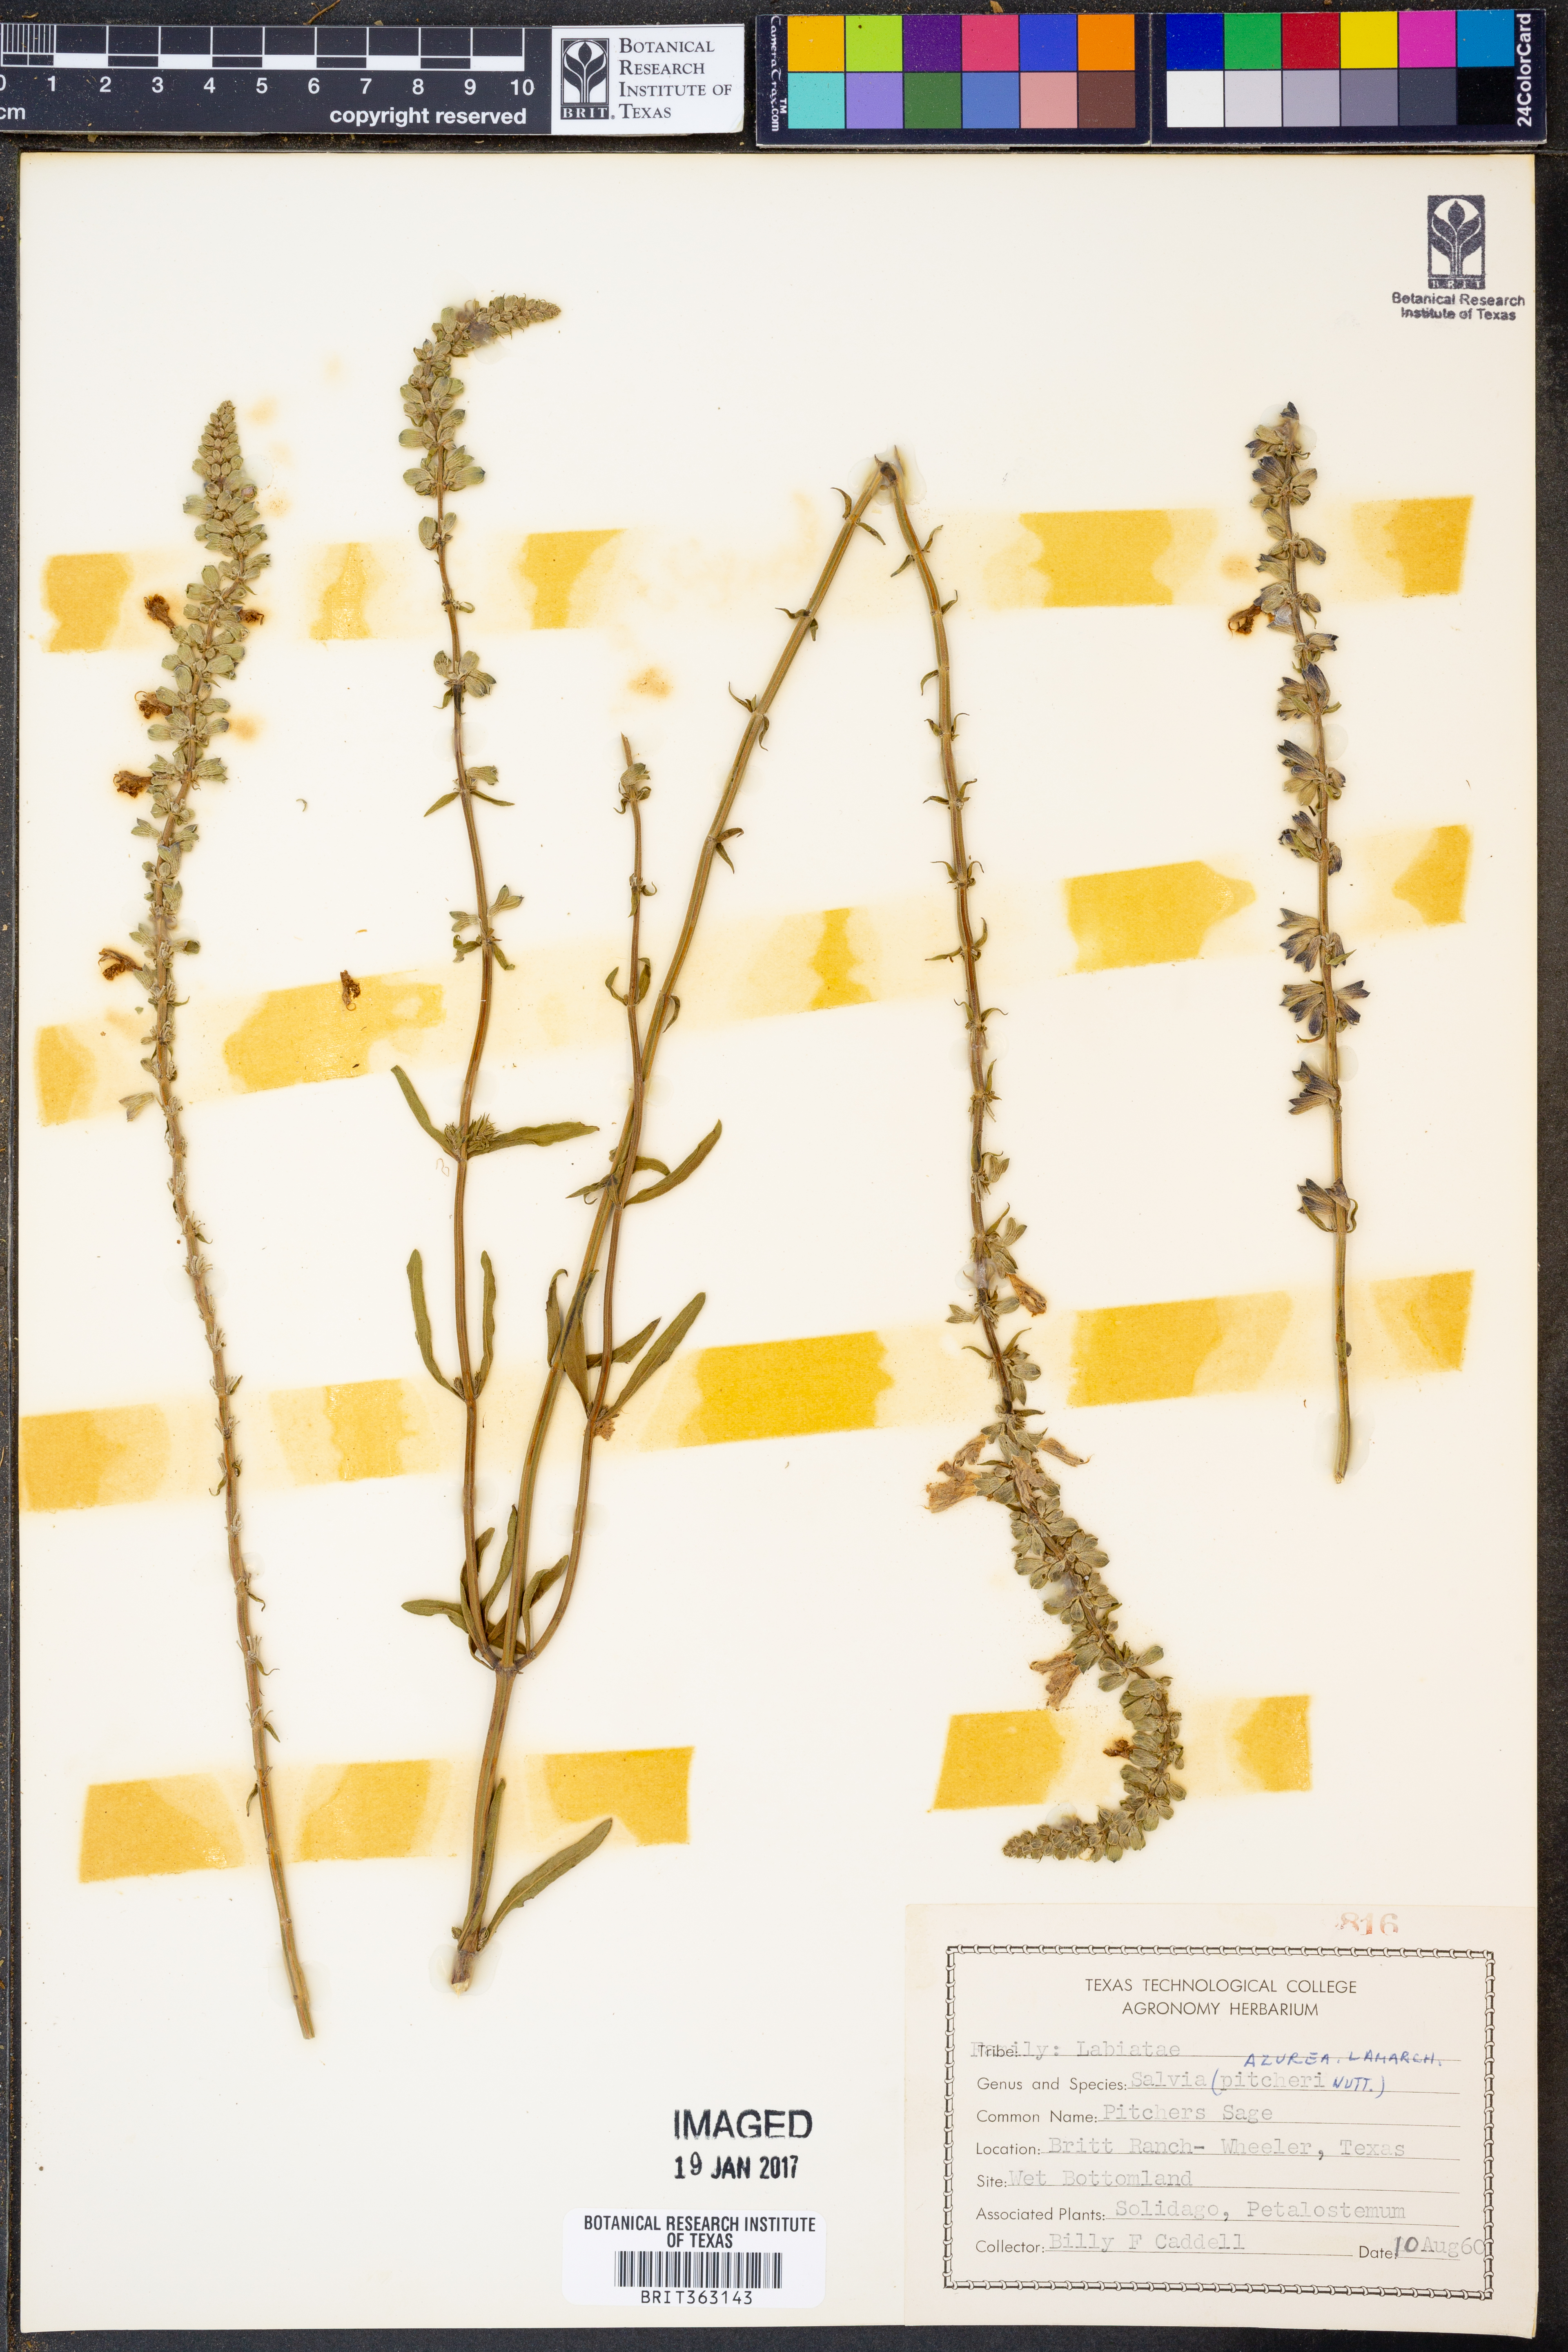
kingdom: Plantae
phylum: Tracheophyta
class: Magnoliopsida
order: Lamiales
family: Lamiaceae
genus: Salvia
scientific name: Salvia azurea
